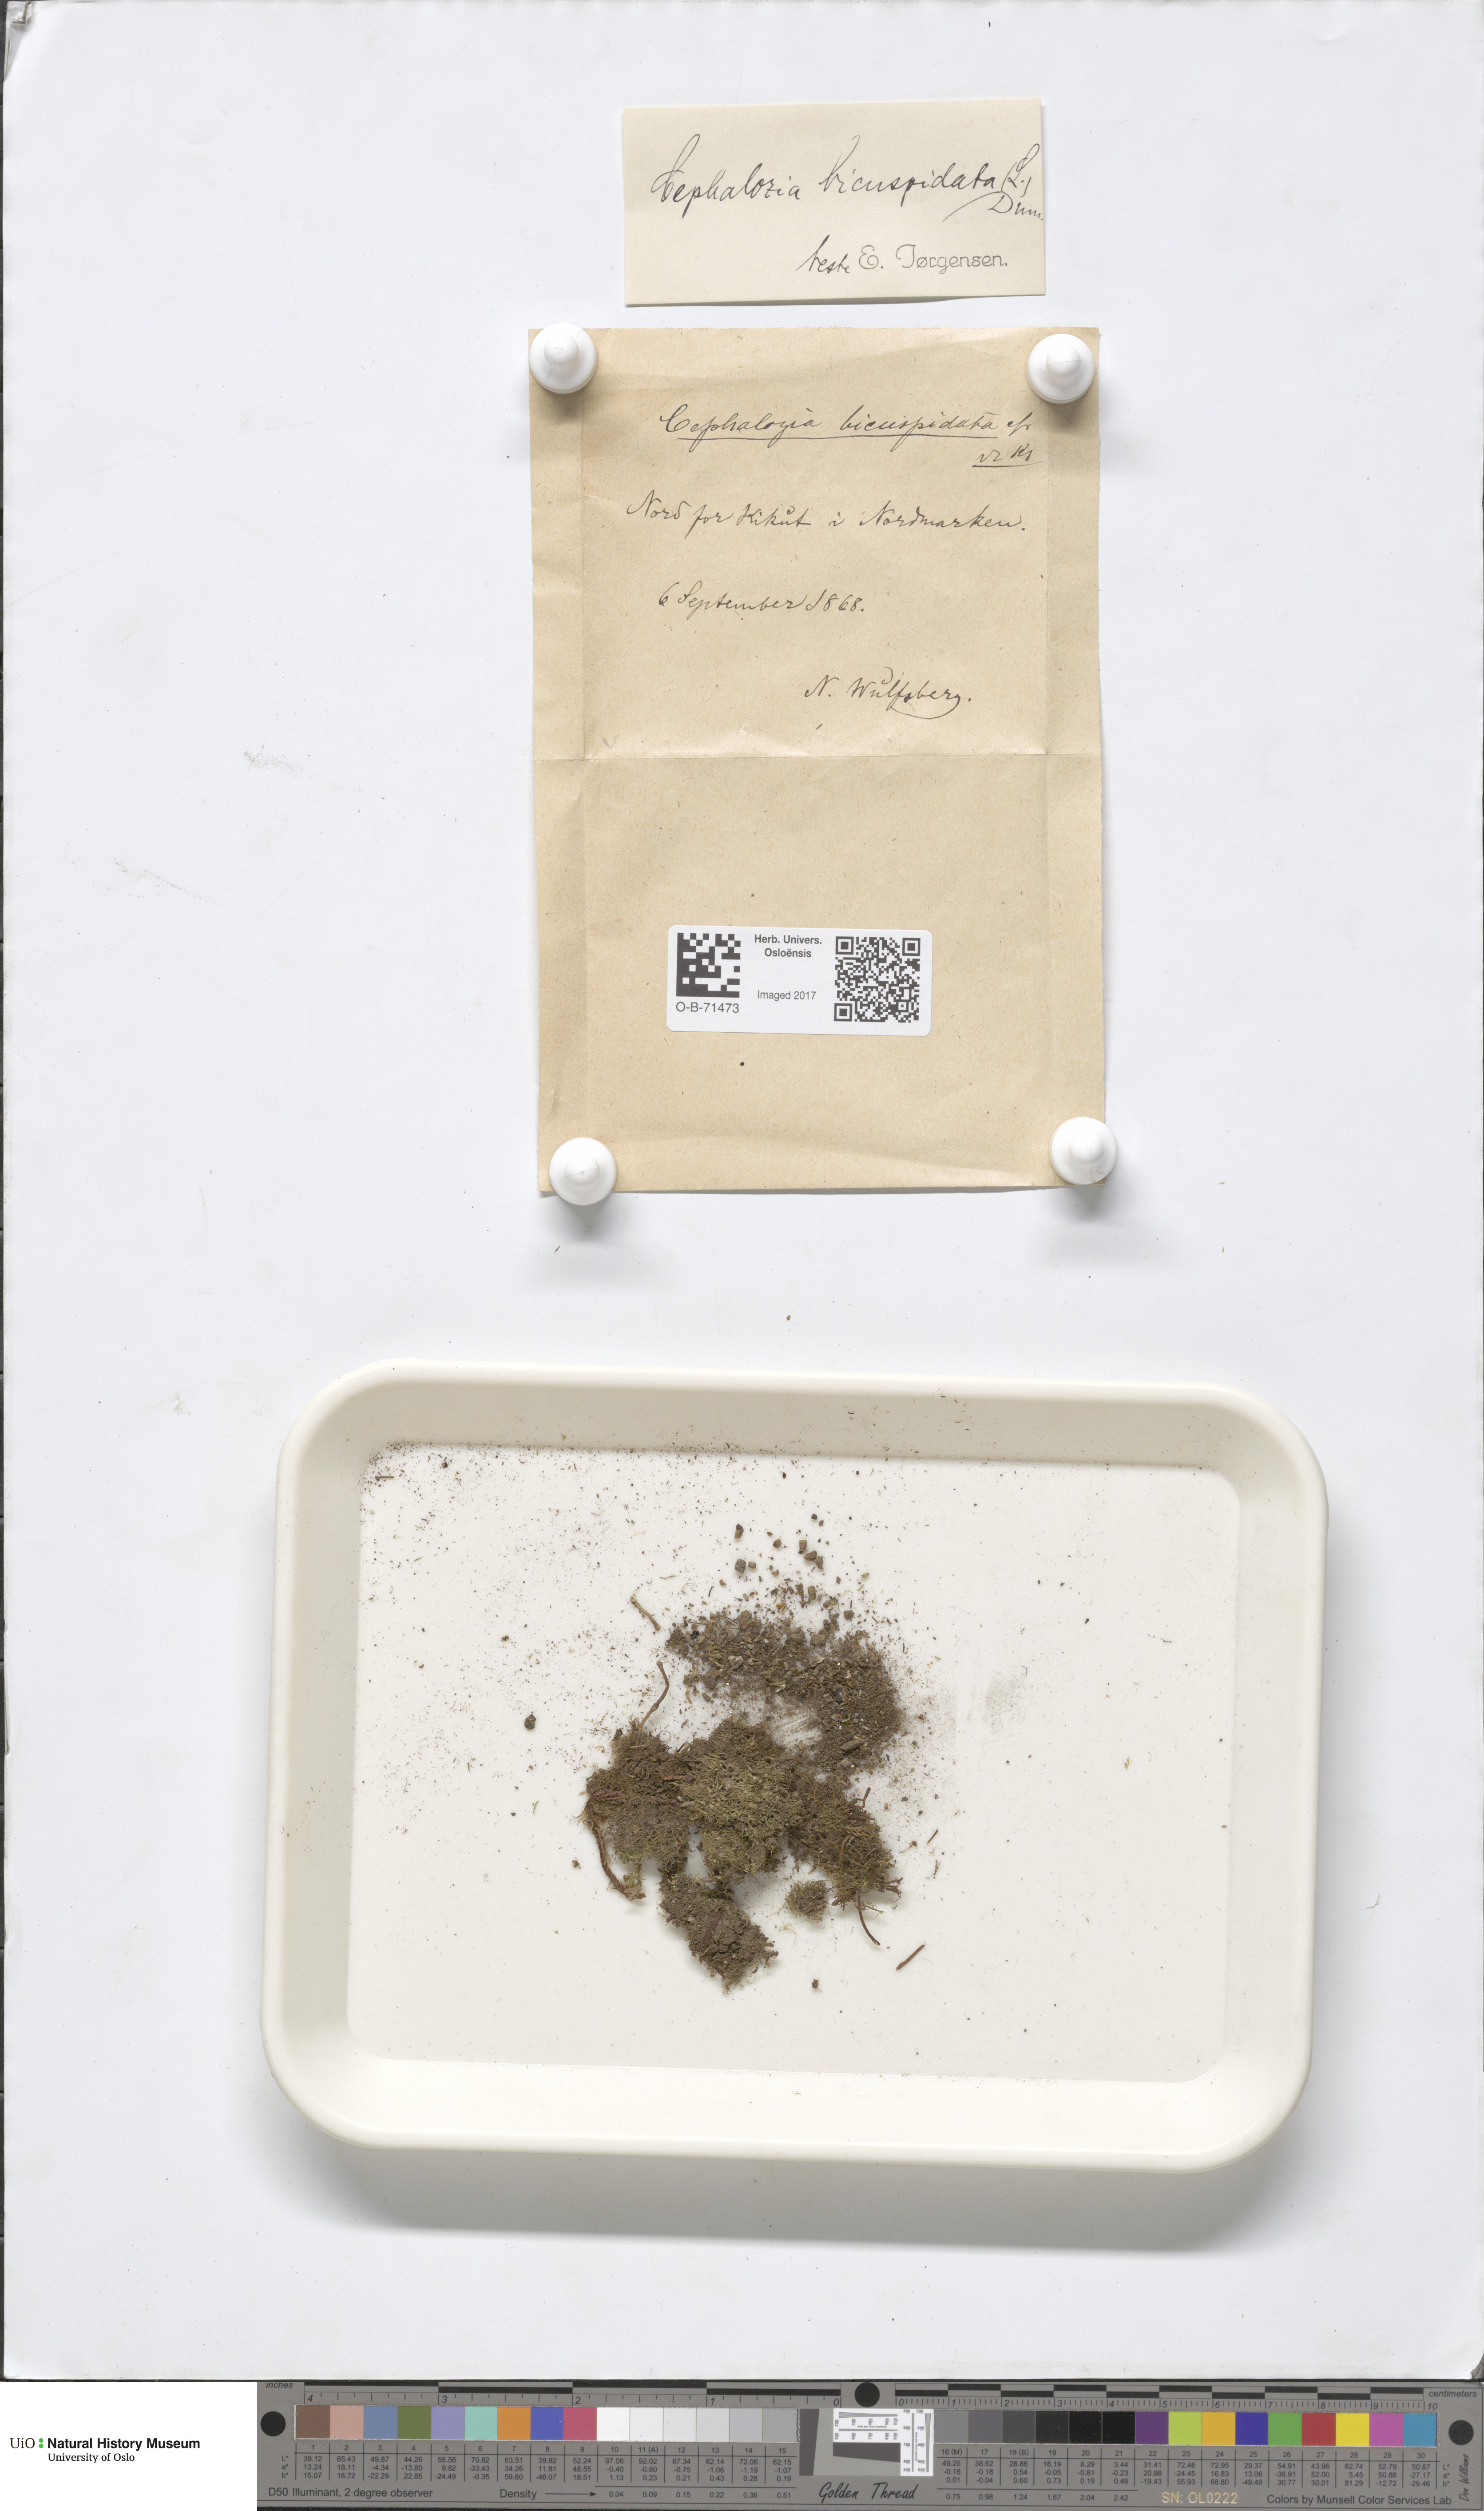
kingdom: Plantae
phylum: Marchantiophyta
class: Jungermanniopsida
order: Jungermanniales
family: Cephaloziaceae
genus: Cephalozia
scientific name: Cephalozia bicuspidata
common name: Two-horned pincerwort
